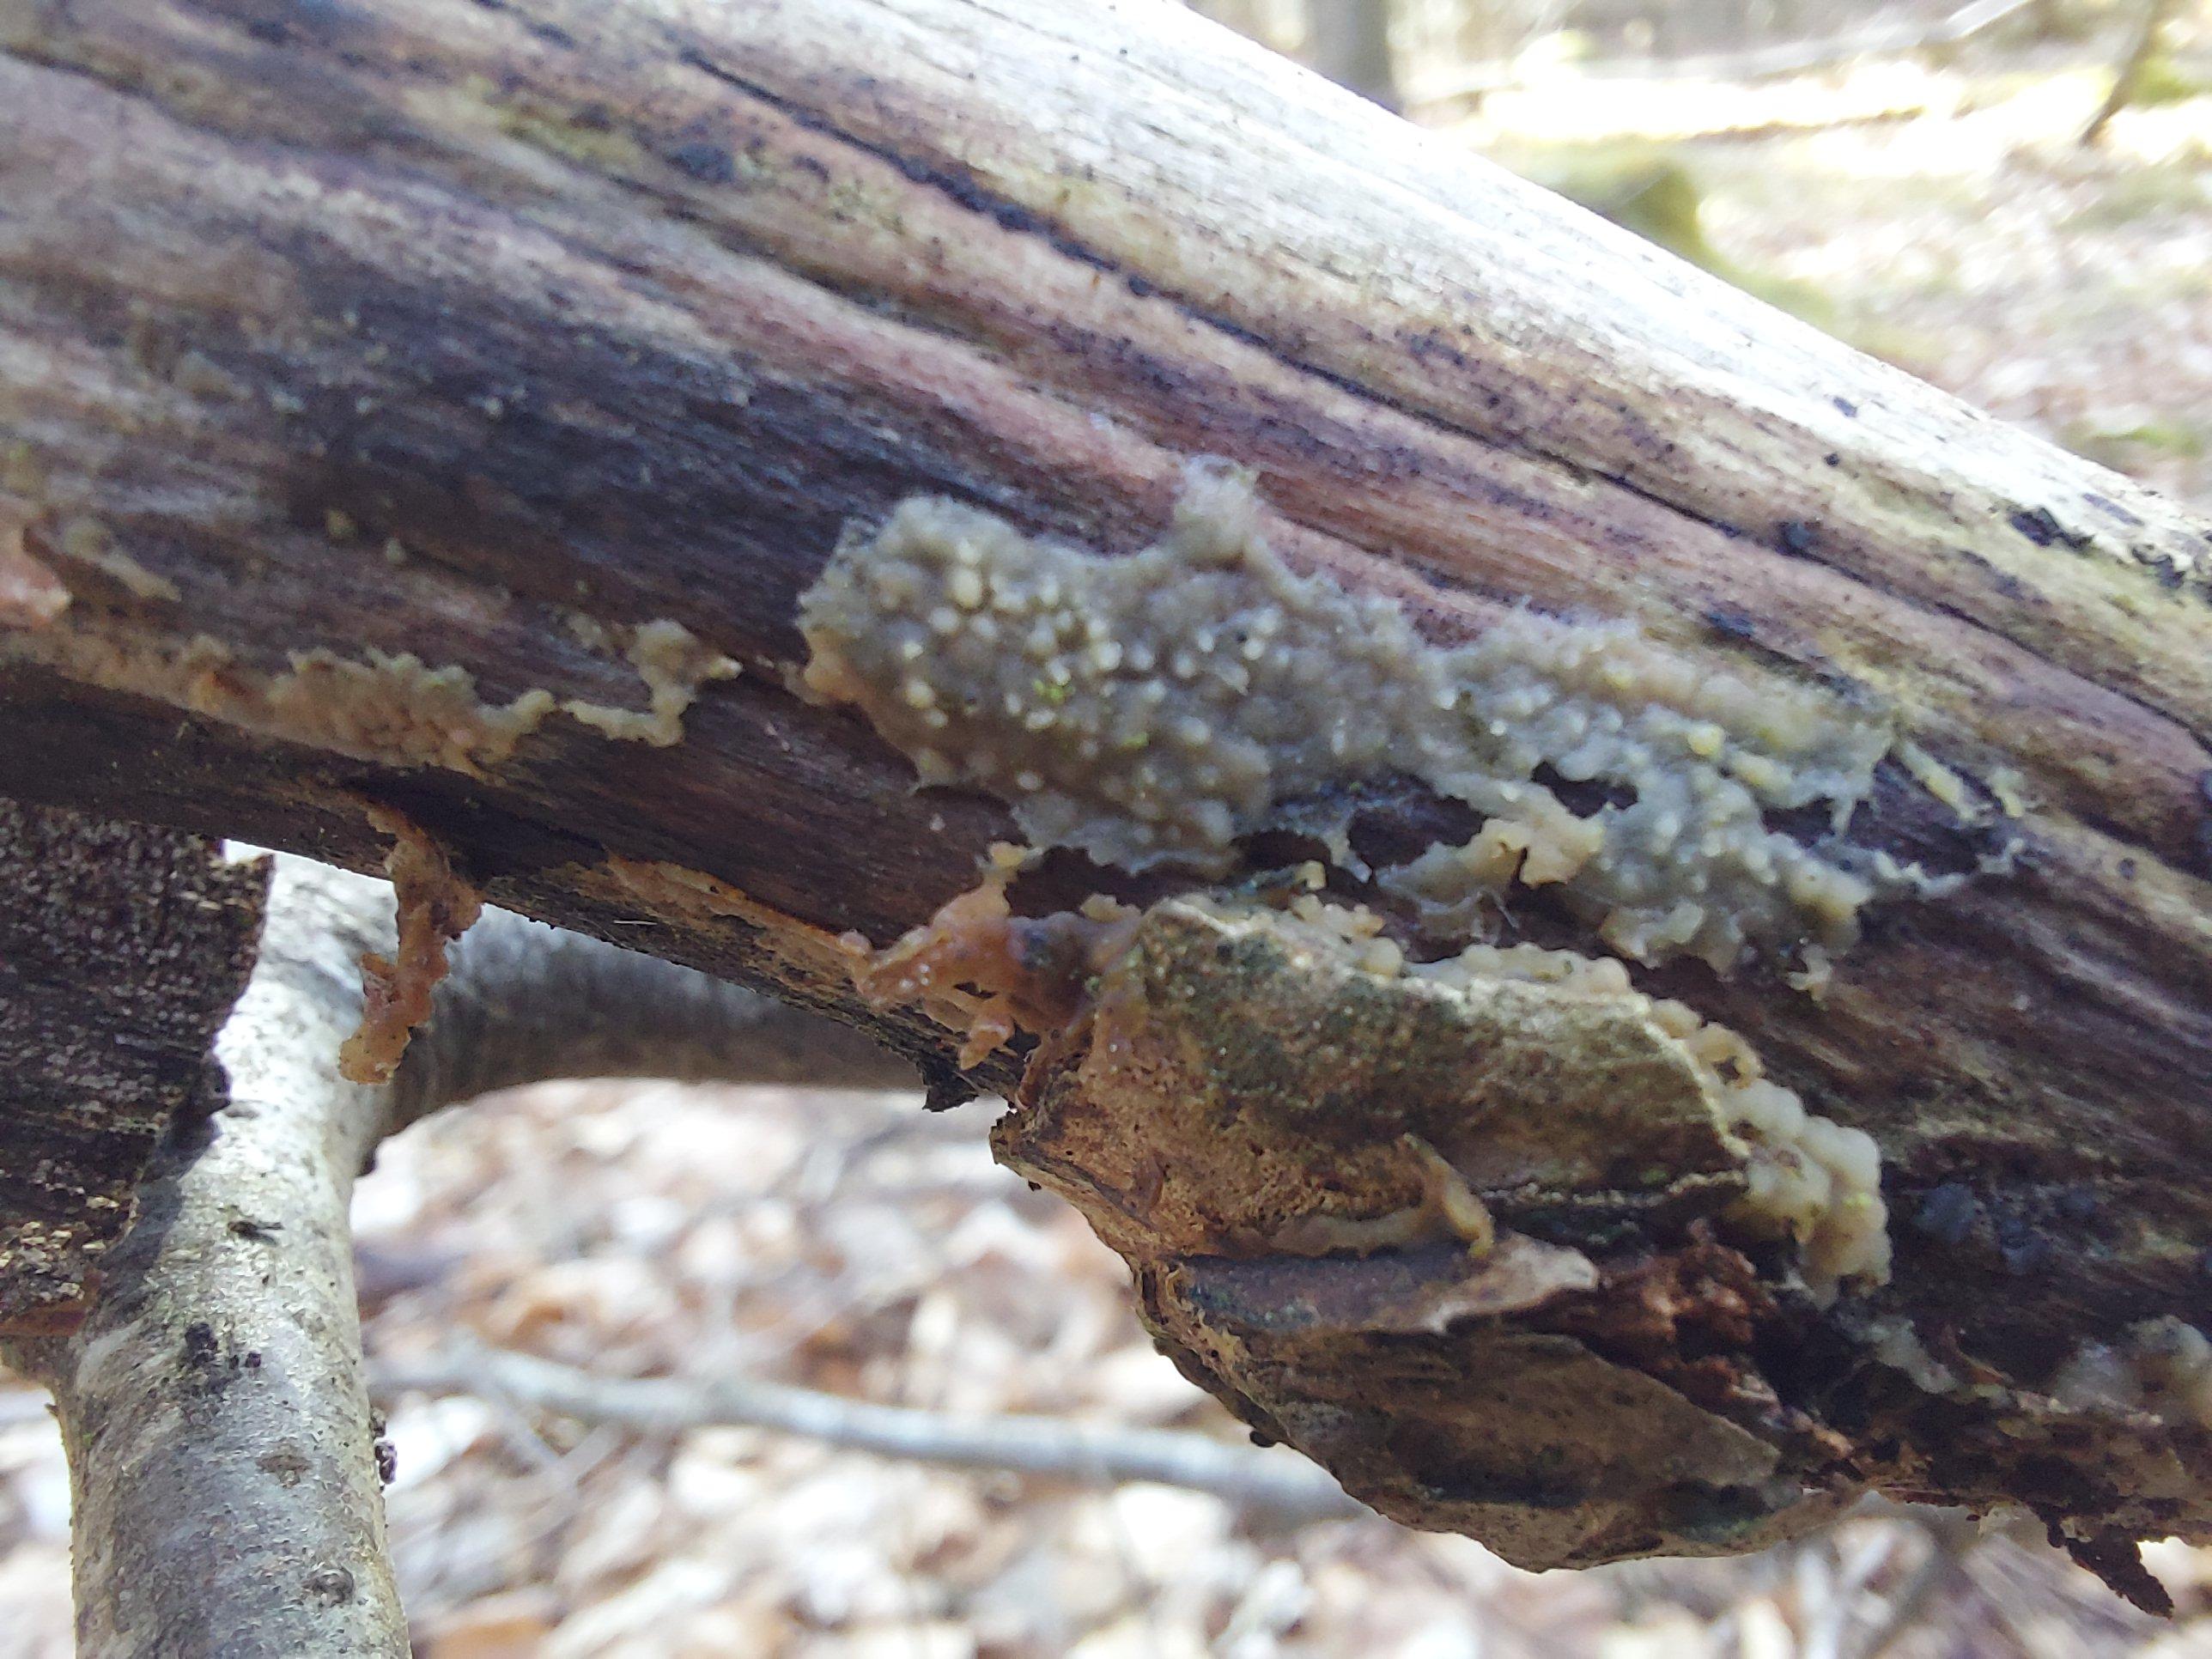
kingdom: Fungi
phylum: Basidiomycota
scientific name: Basidiomycota
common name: basidiesvampe
